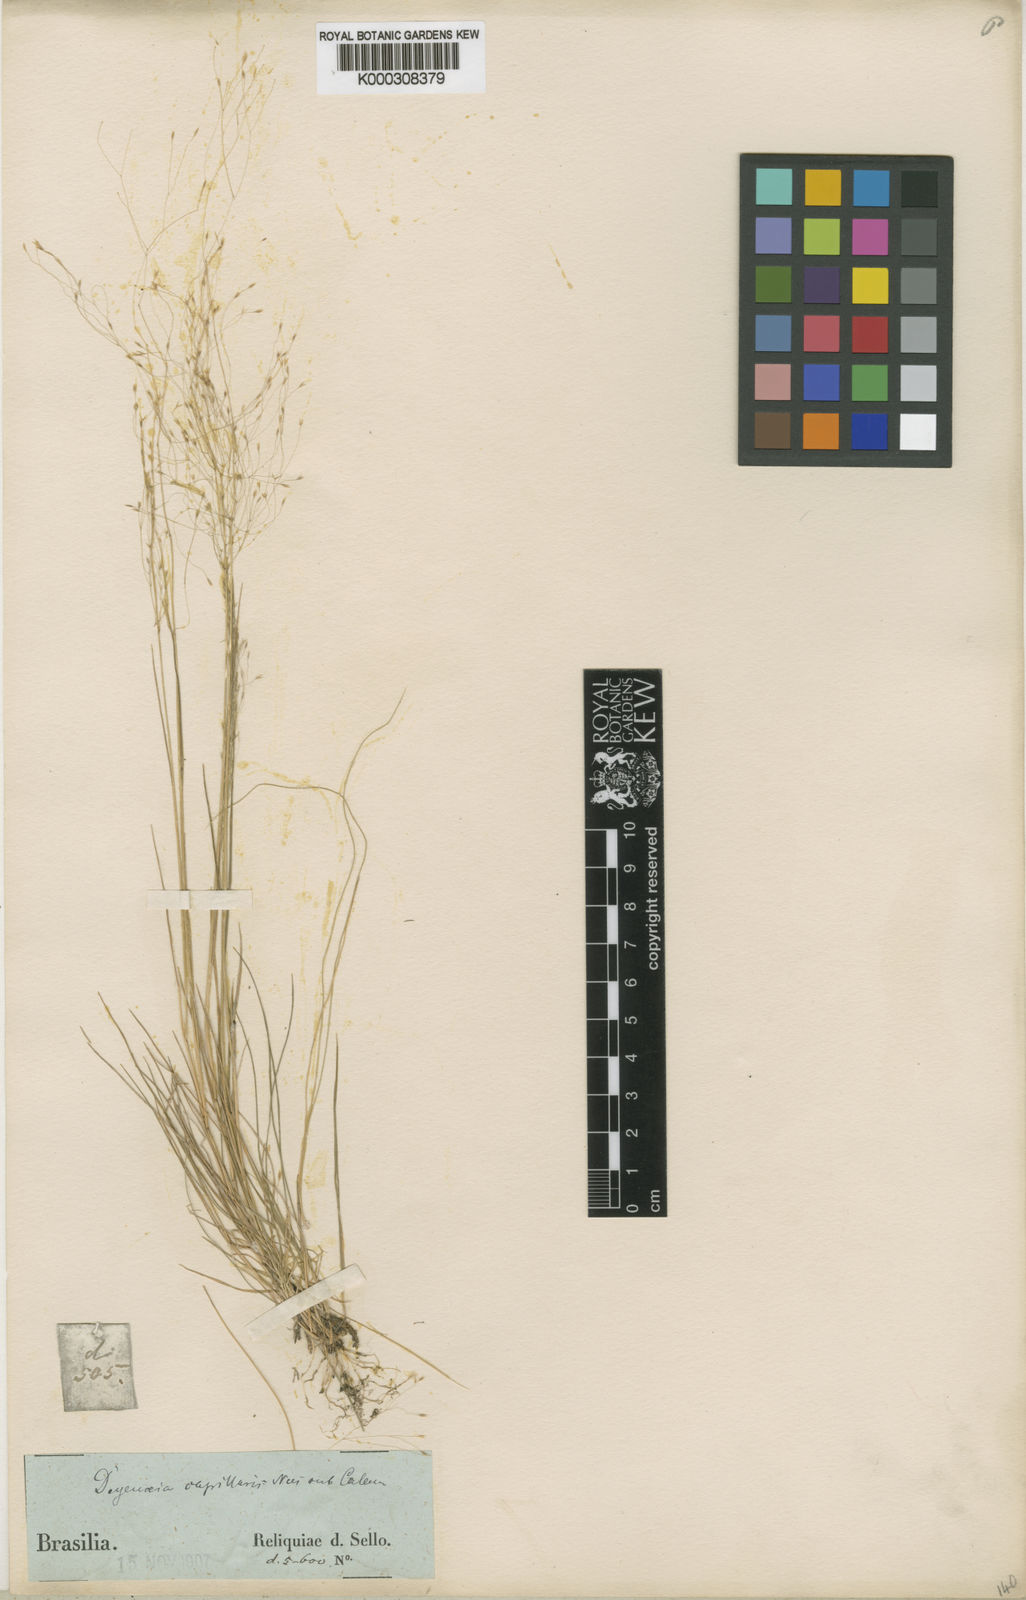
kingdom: Plantae
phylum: Tracheophyta
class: Liliopsida
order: Poales
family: Poaceae
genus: Agrostis
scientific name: Agrostis montevidensis
